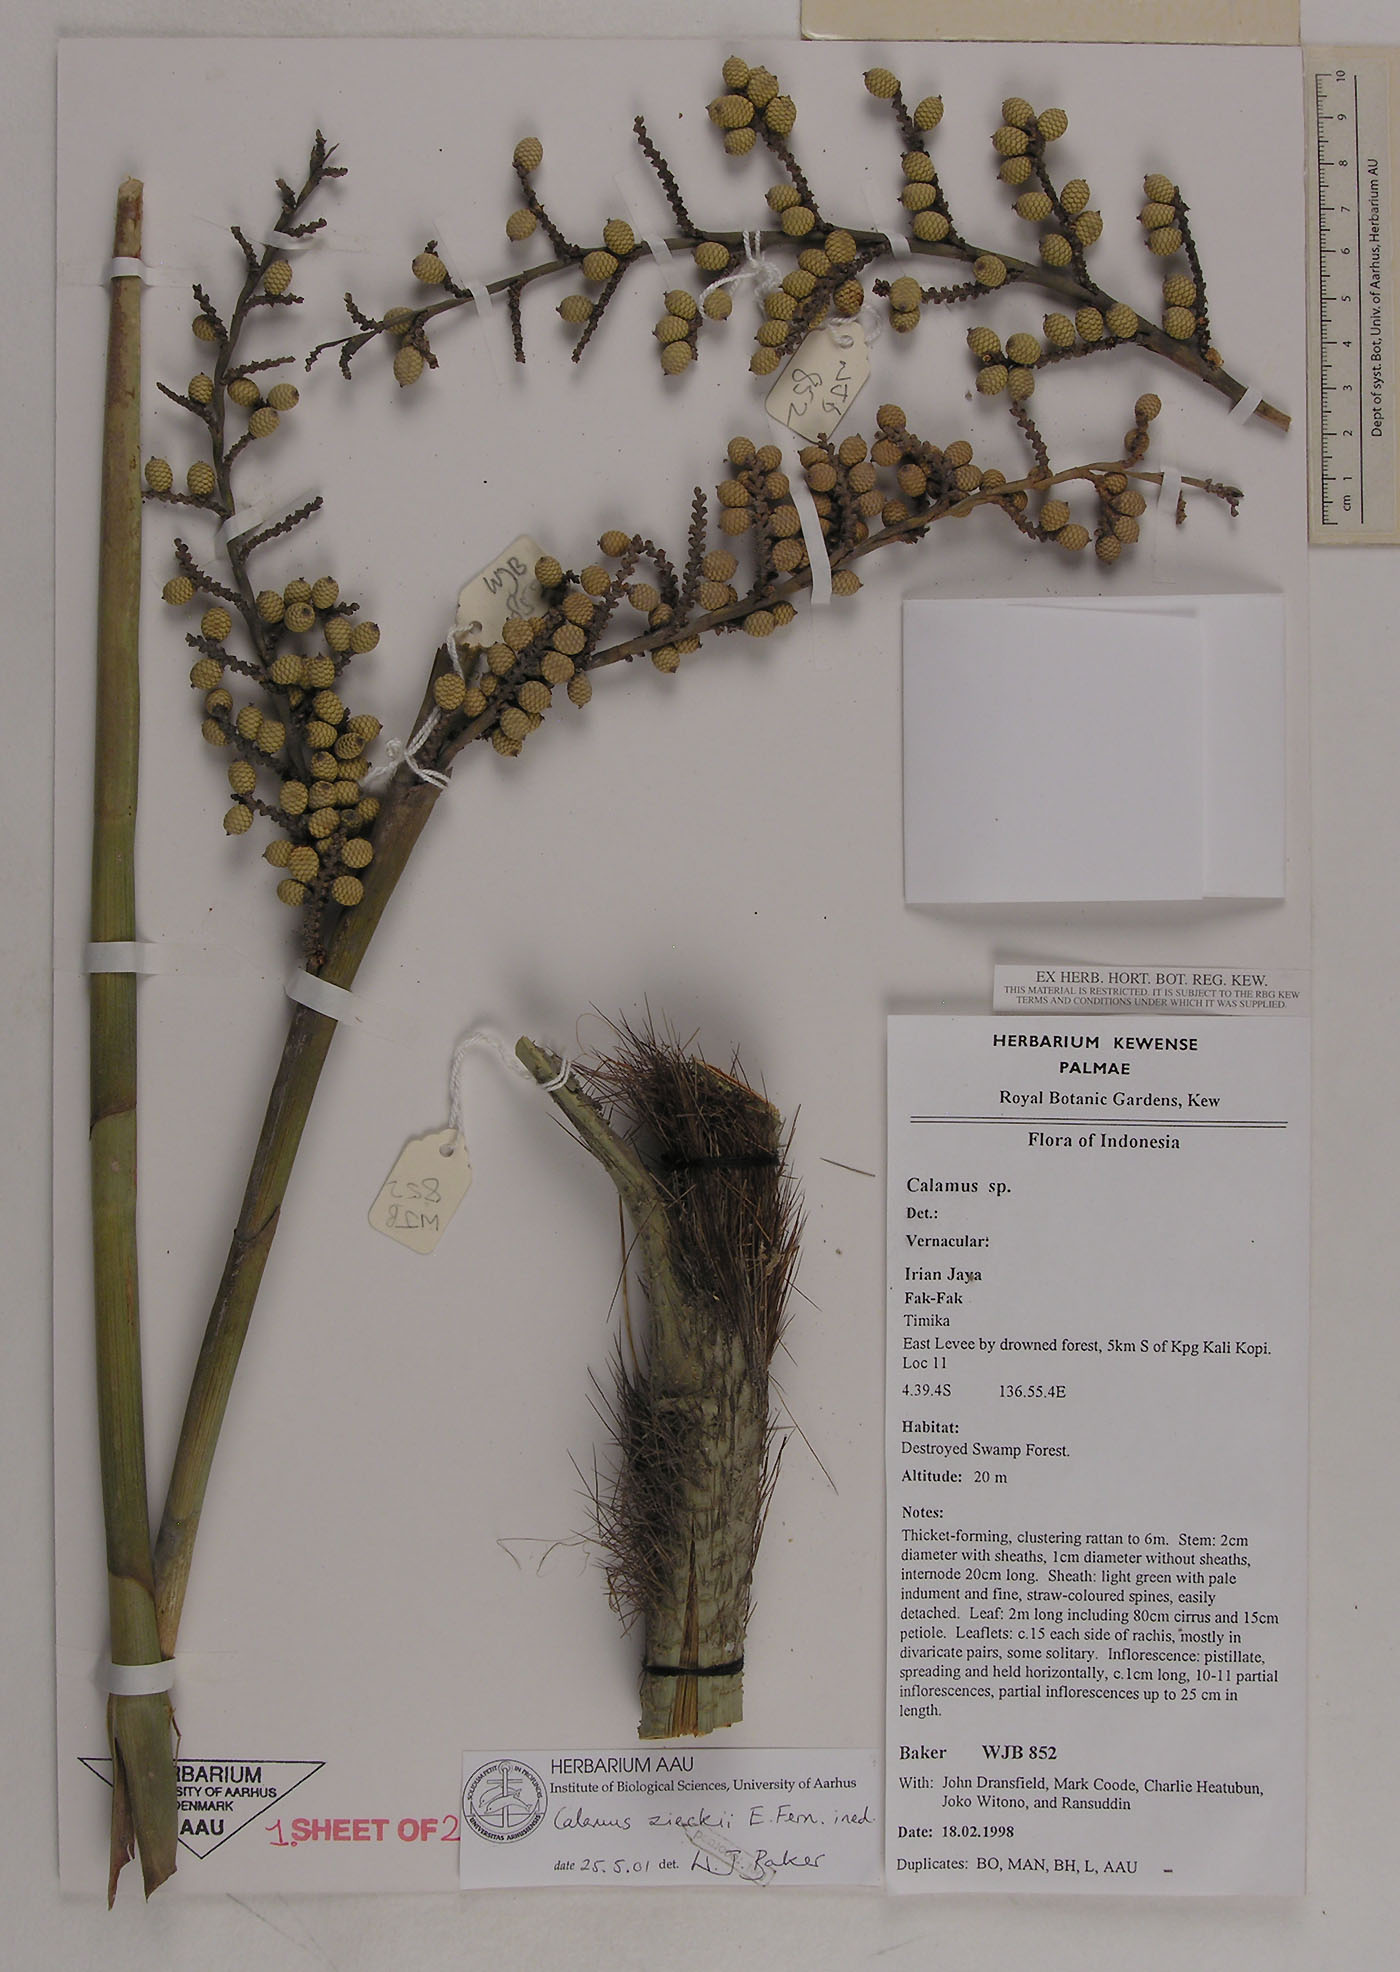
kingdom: Plantae
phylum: Tracheophyta
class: Liliopsida
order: Arecales
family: Arecaceae
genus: Calamus
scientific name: Calamus zieckii
